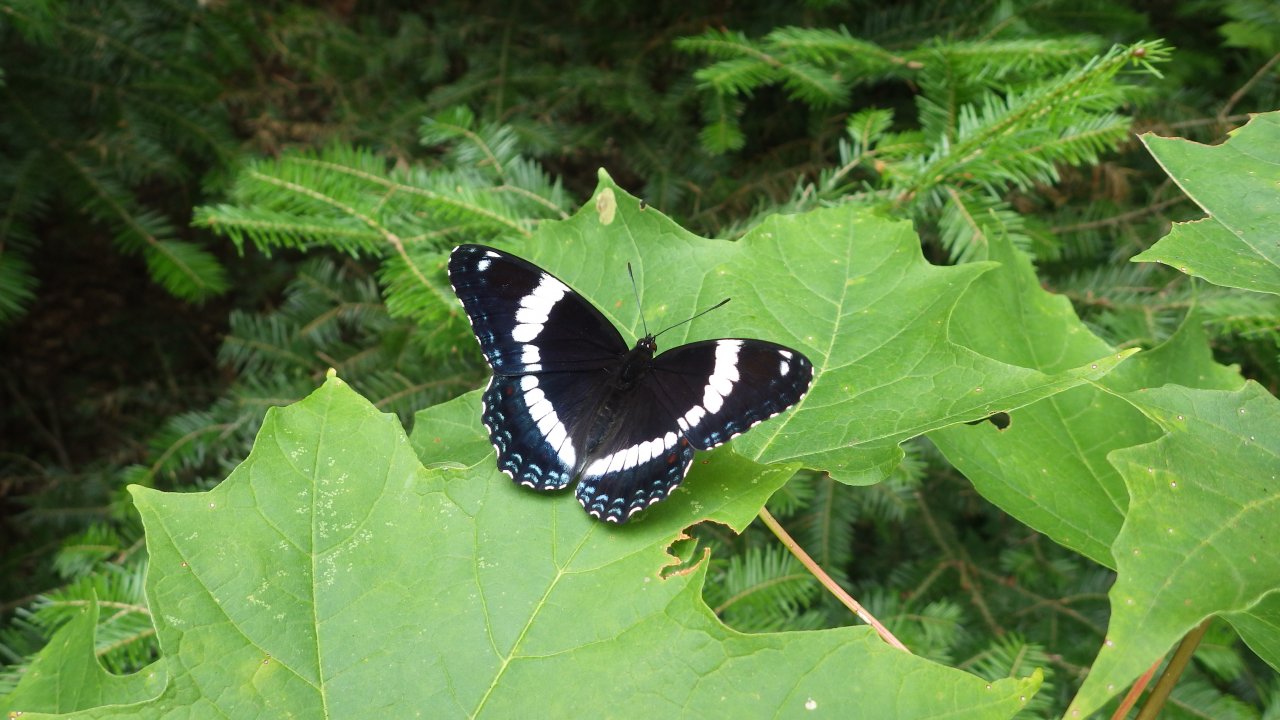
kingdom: Animalia
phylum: Arthropoda
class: Insecta
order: Lepidoptera
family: Nymphalidae
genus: Limenitis
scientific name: Limenitis arthemis
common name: Red-spotted Admiral
